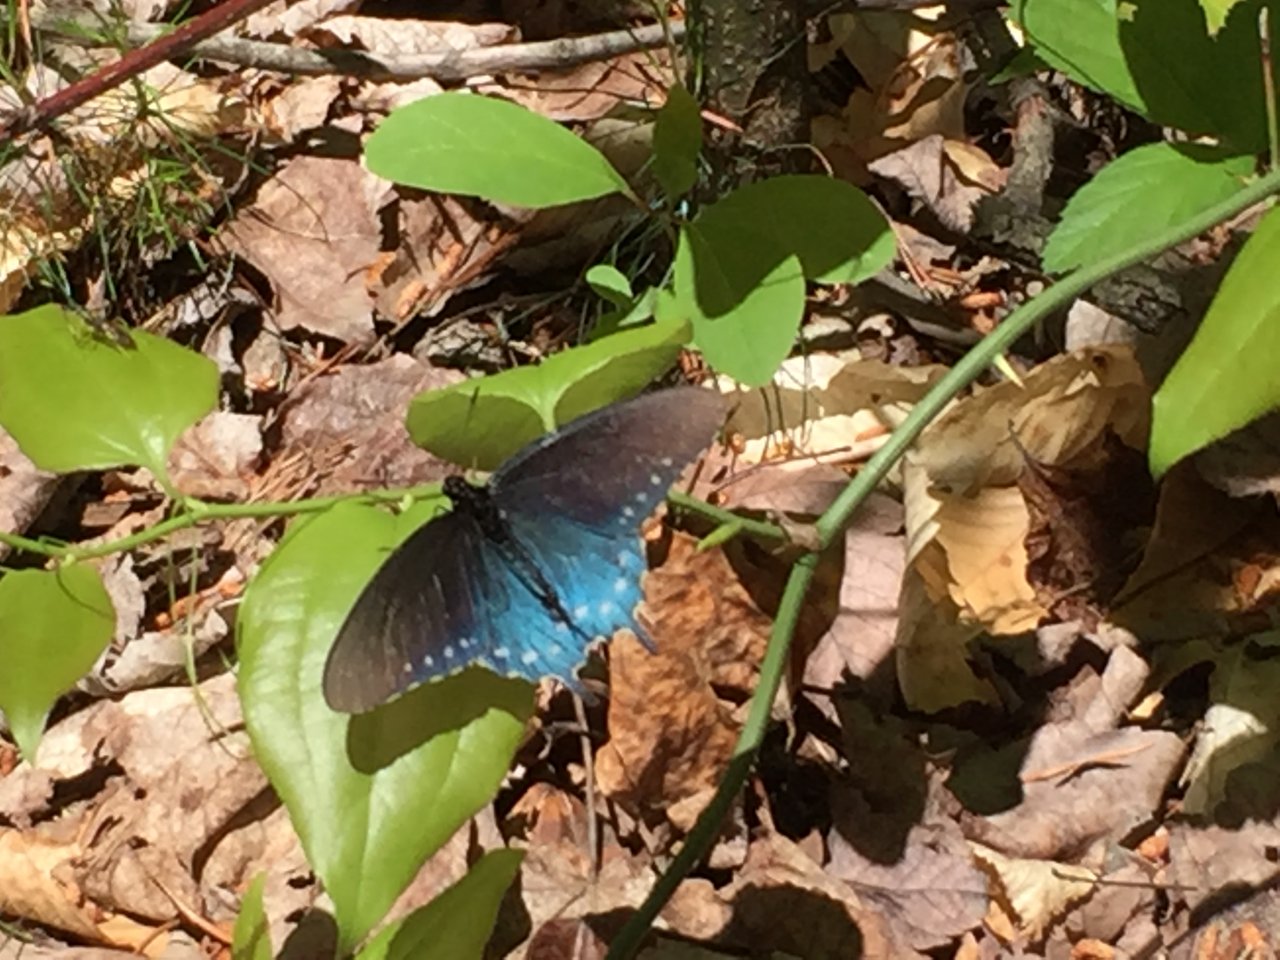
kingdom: Animalia
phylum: Arthropoda
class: Insecta
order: Lepidoptera
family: Papilionidae
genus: Battus
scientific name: Battus philenor
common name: Pipevine Swallowtail
